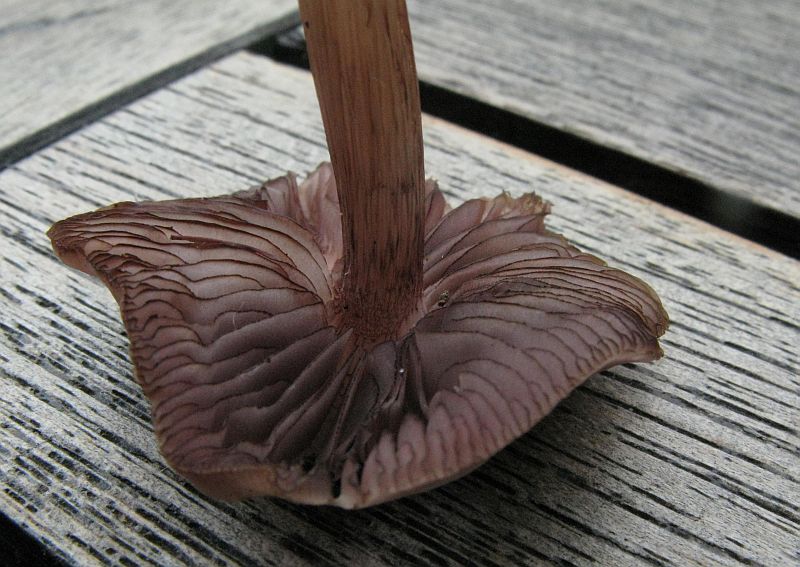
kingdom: Fungi
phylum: Basidiomycota
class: Agaricomycetes
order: Agaricales
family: Mycenaceae
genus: Mycena
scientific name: Mycena pelianthina
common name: mørkbladet huesvamp
